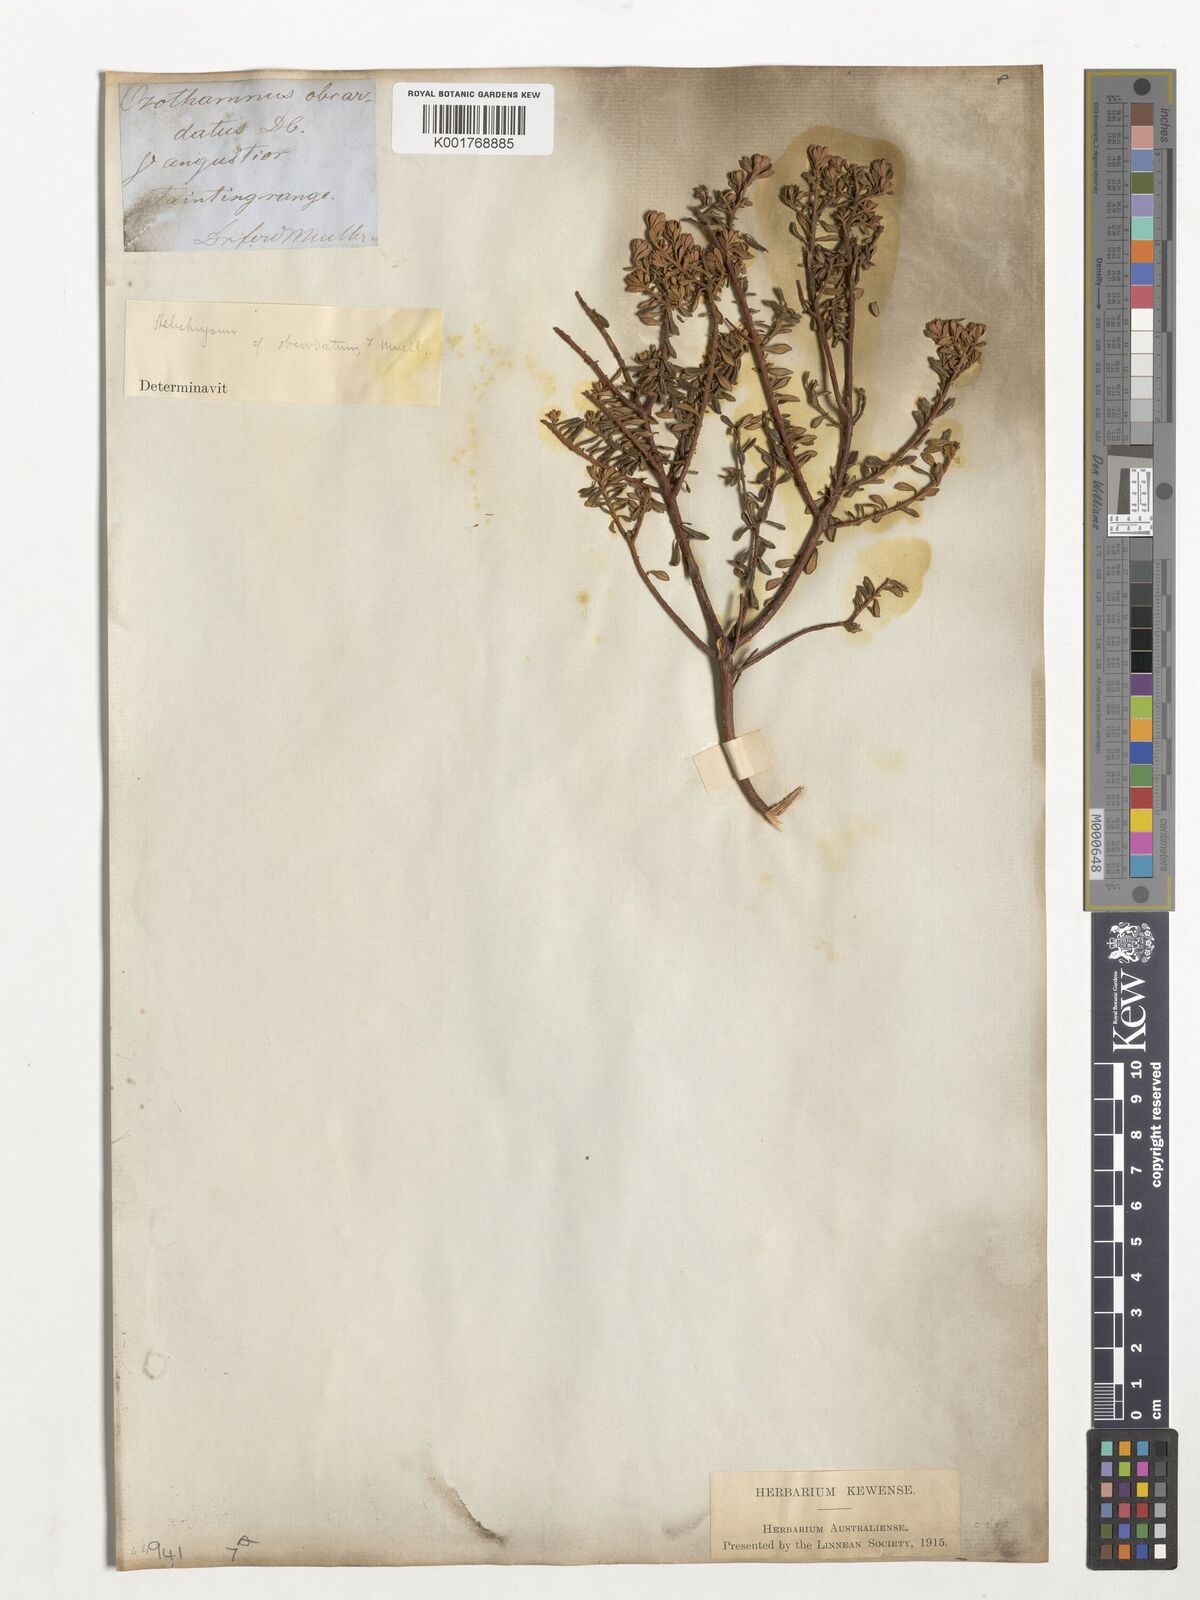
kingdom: Plantae
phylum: Tracheophyta
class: Magnoliopsida
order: Asterales
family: Asteraceae
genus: Ozothamnus
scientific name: Ozothamnus obovatus
